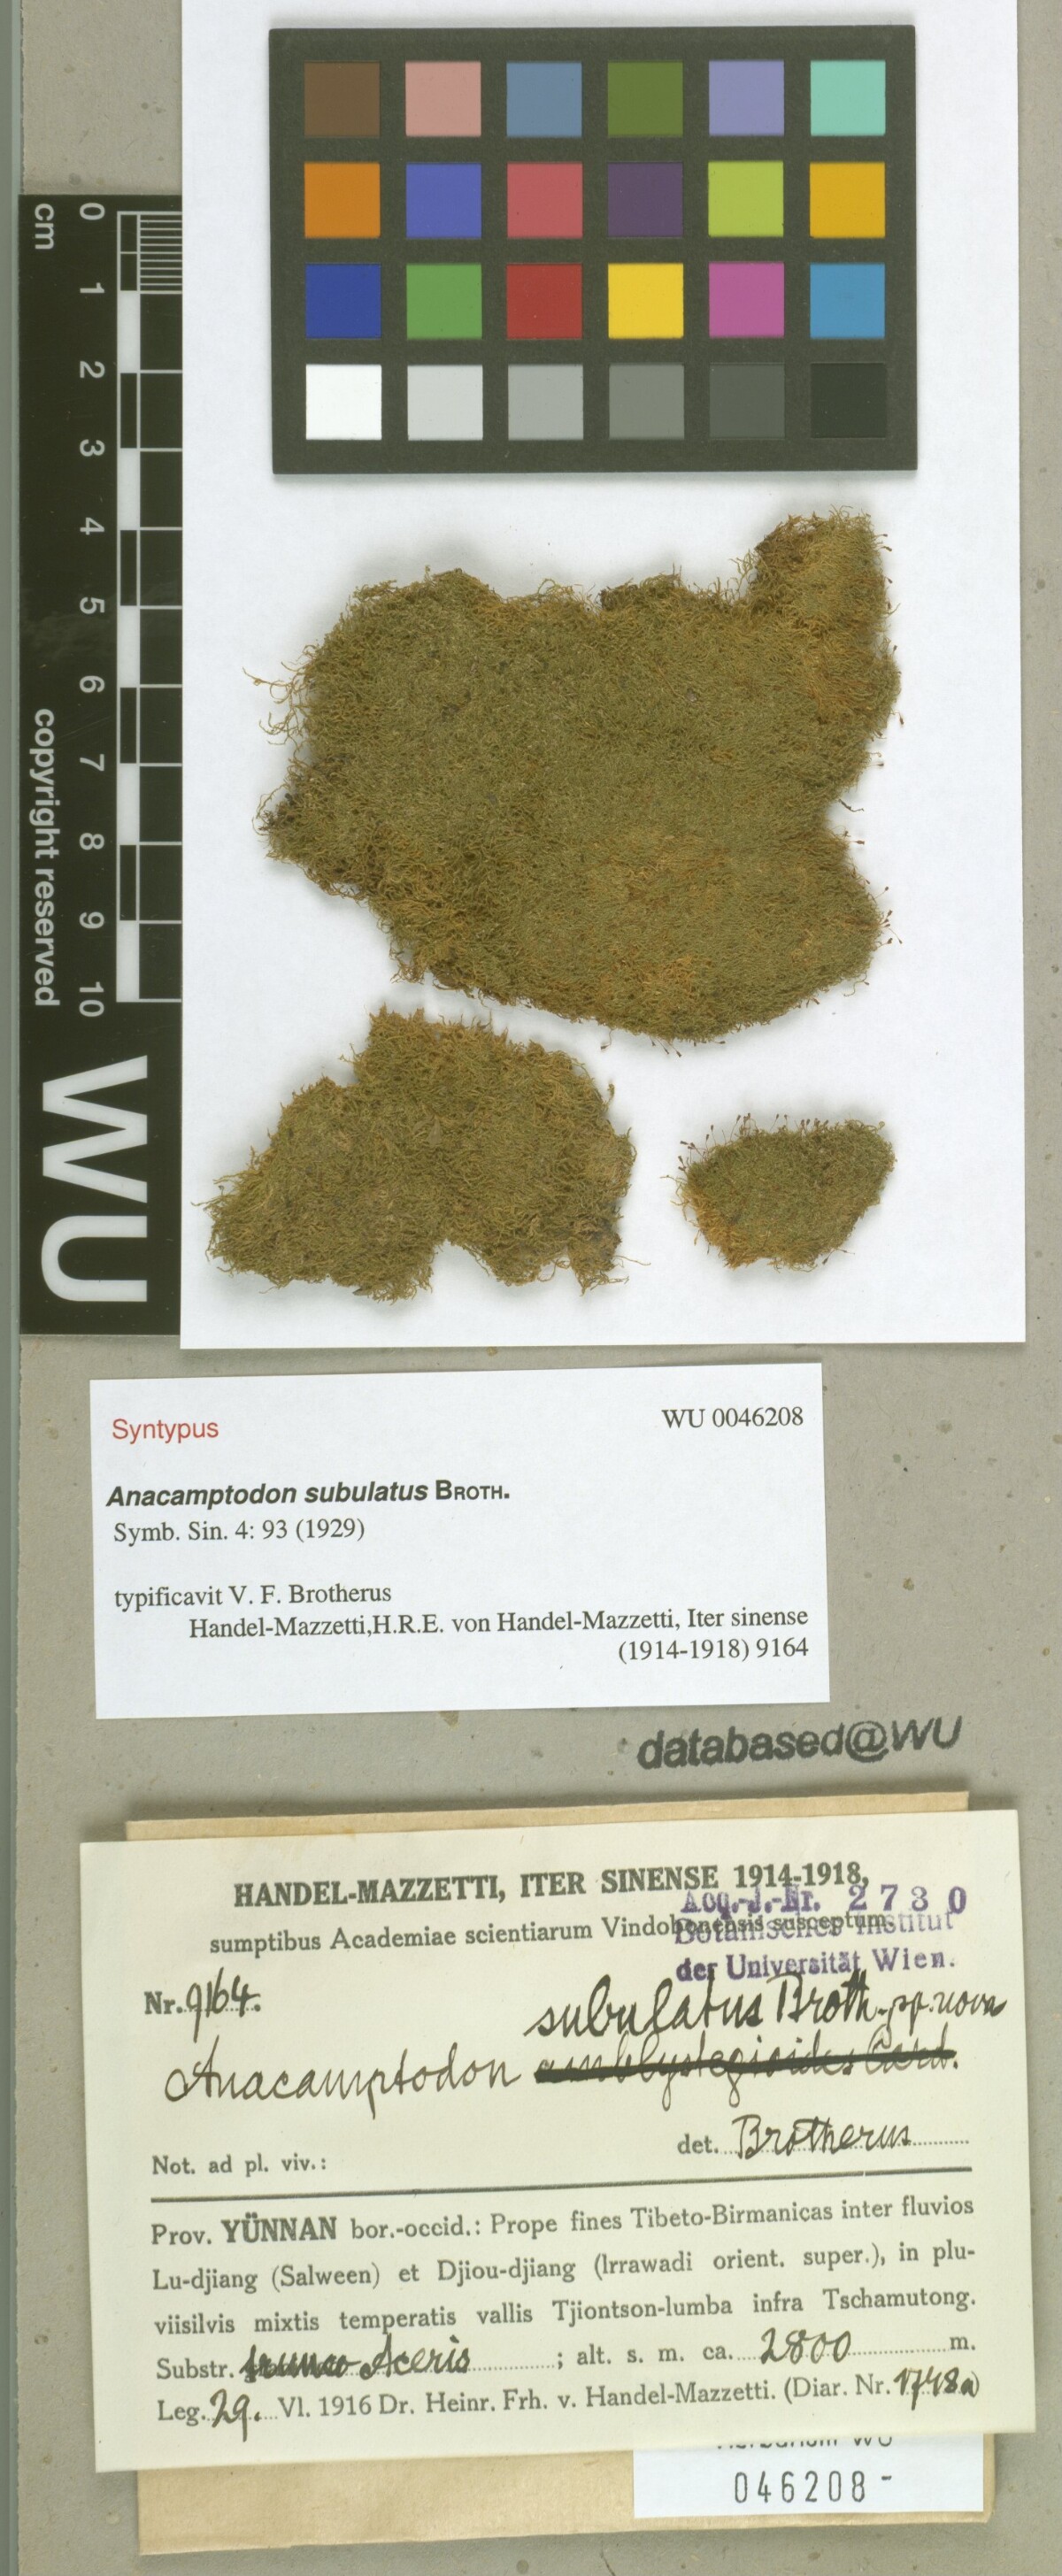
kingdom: Plantae
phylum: Bryophyta
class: Bryopsida
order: Hypnales
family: Amblystegiaceae
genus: Anacamptodon
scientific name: Anacamptodon latidens
